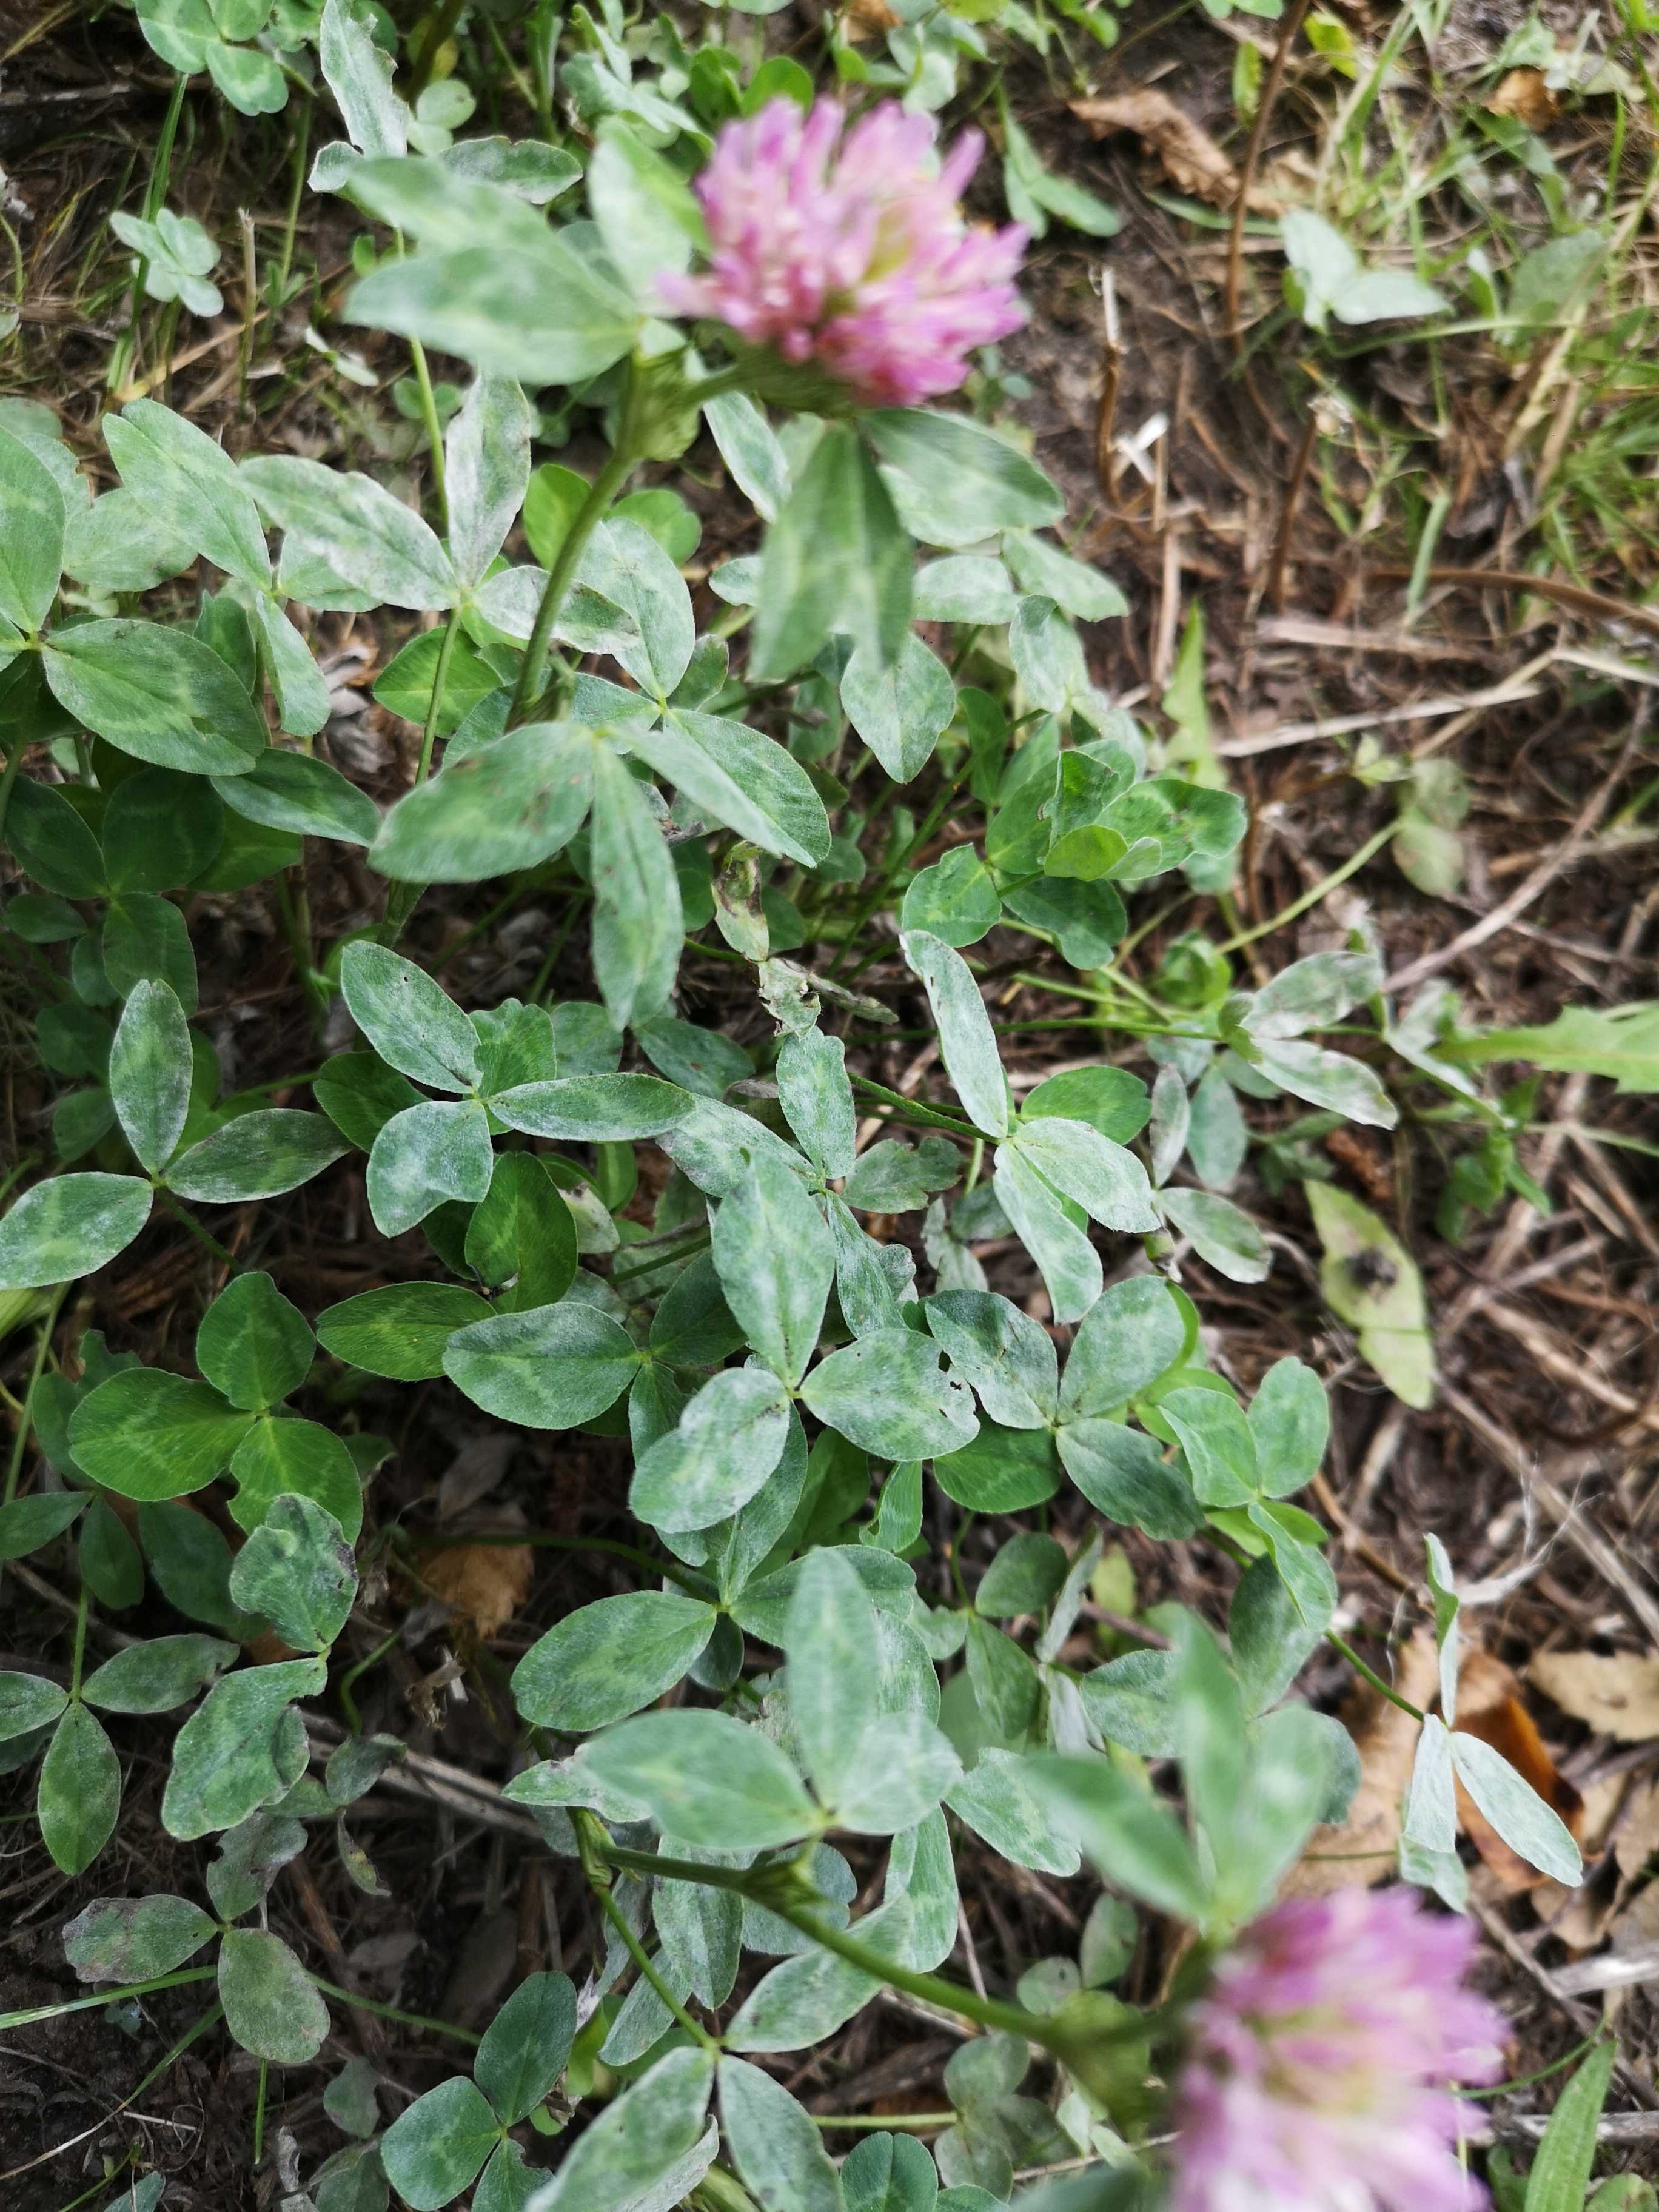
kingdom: Fungi
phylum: Ascomycota
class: Leotiomycetes
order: Helotiales
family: Erysiphaceae
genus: Erysiphe
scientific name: Erysiphe
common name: meldug
